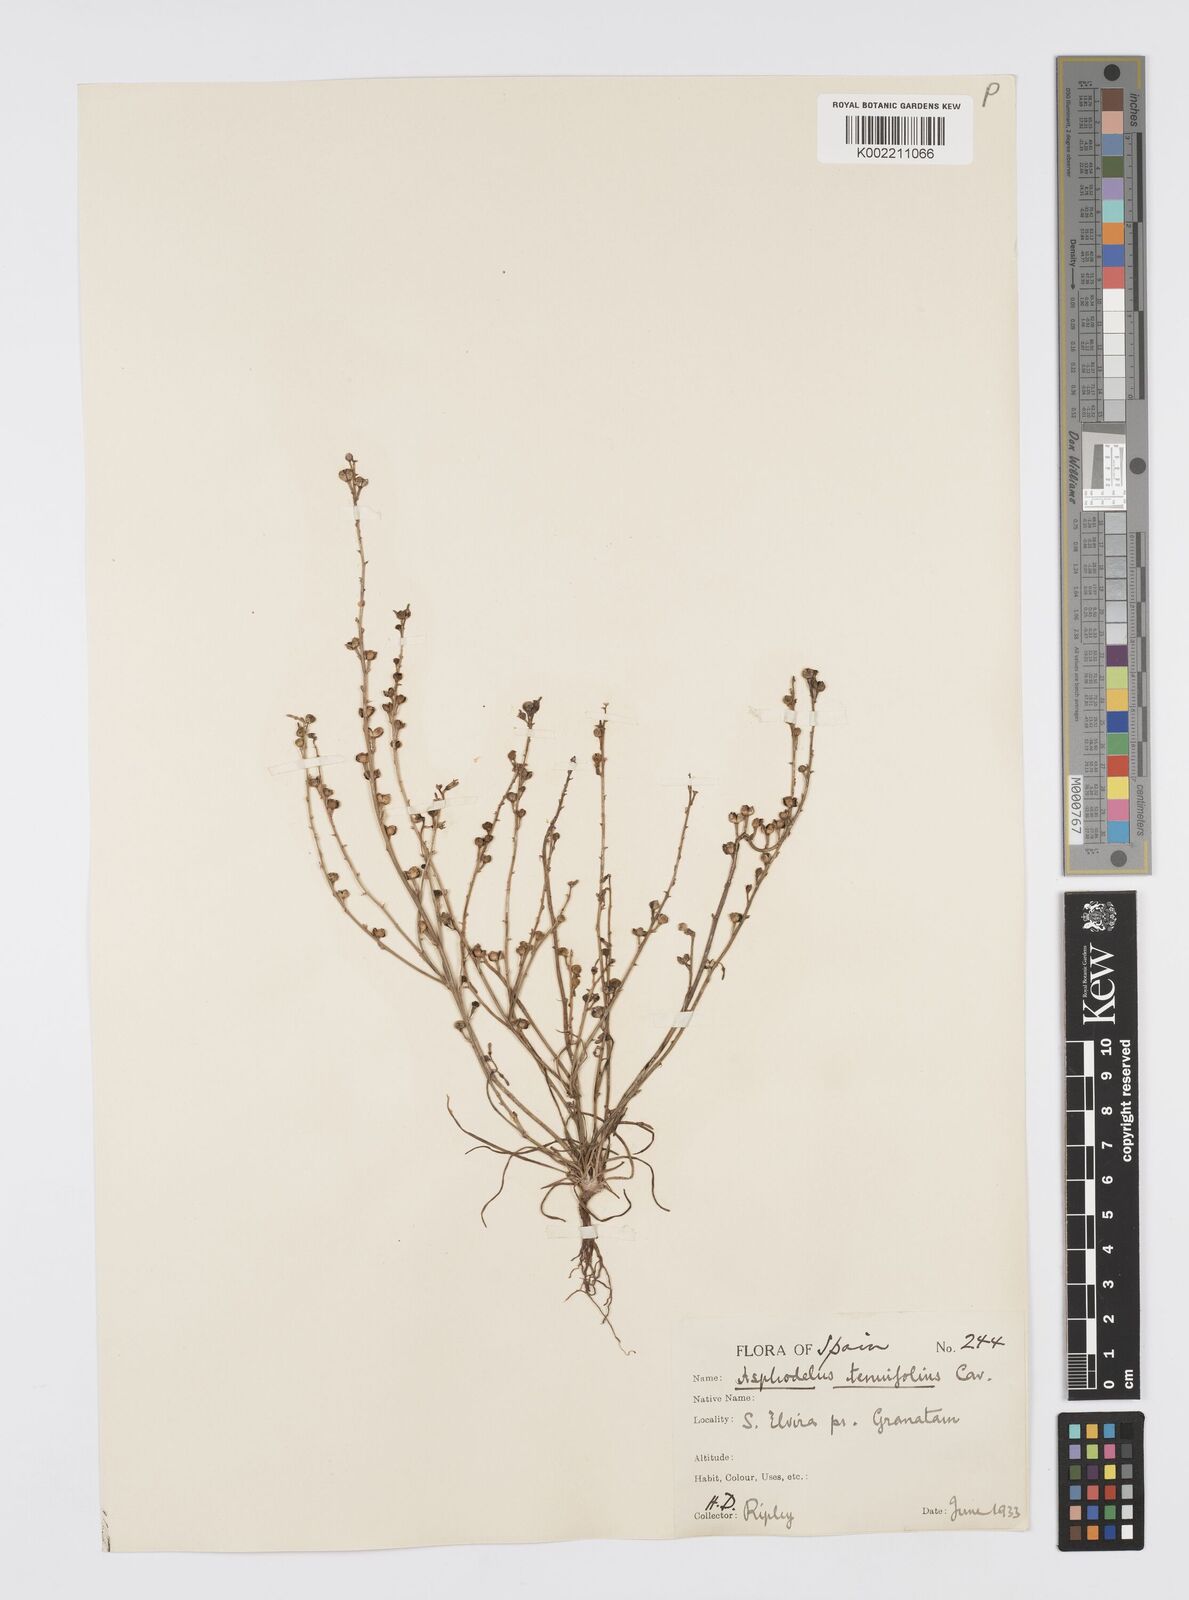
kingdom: Plantae
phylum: Tracheophyta
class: Liliopsida
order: Asparagales
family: Asphodelaceae
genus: Asphodelus
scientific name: Asphodelus tenuifolius
